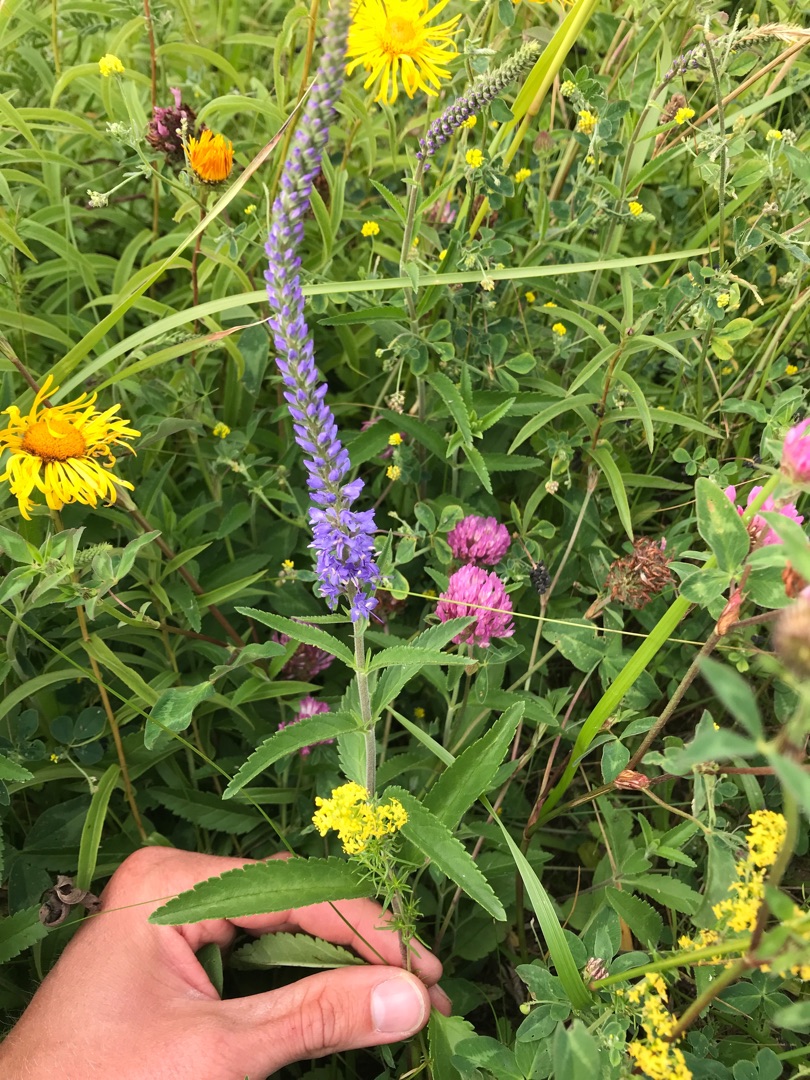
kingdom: Plantae
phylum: Tracheophyta
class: Magnoliopsida
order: Lamiales
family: Plantaginaceae
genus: Veronica
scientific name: Veronica spicata
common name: Aks-ærenpris
